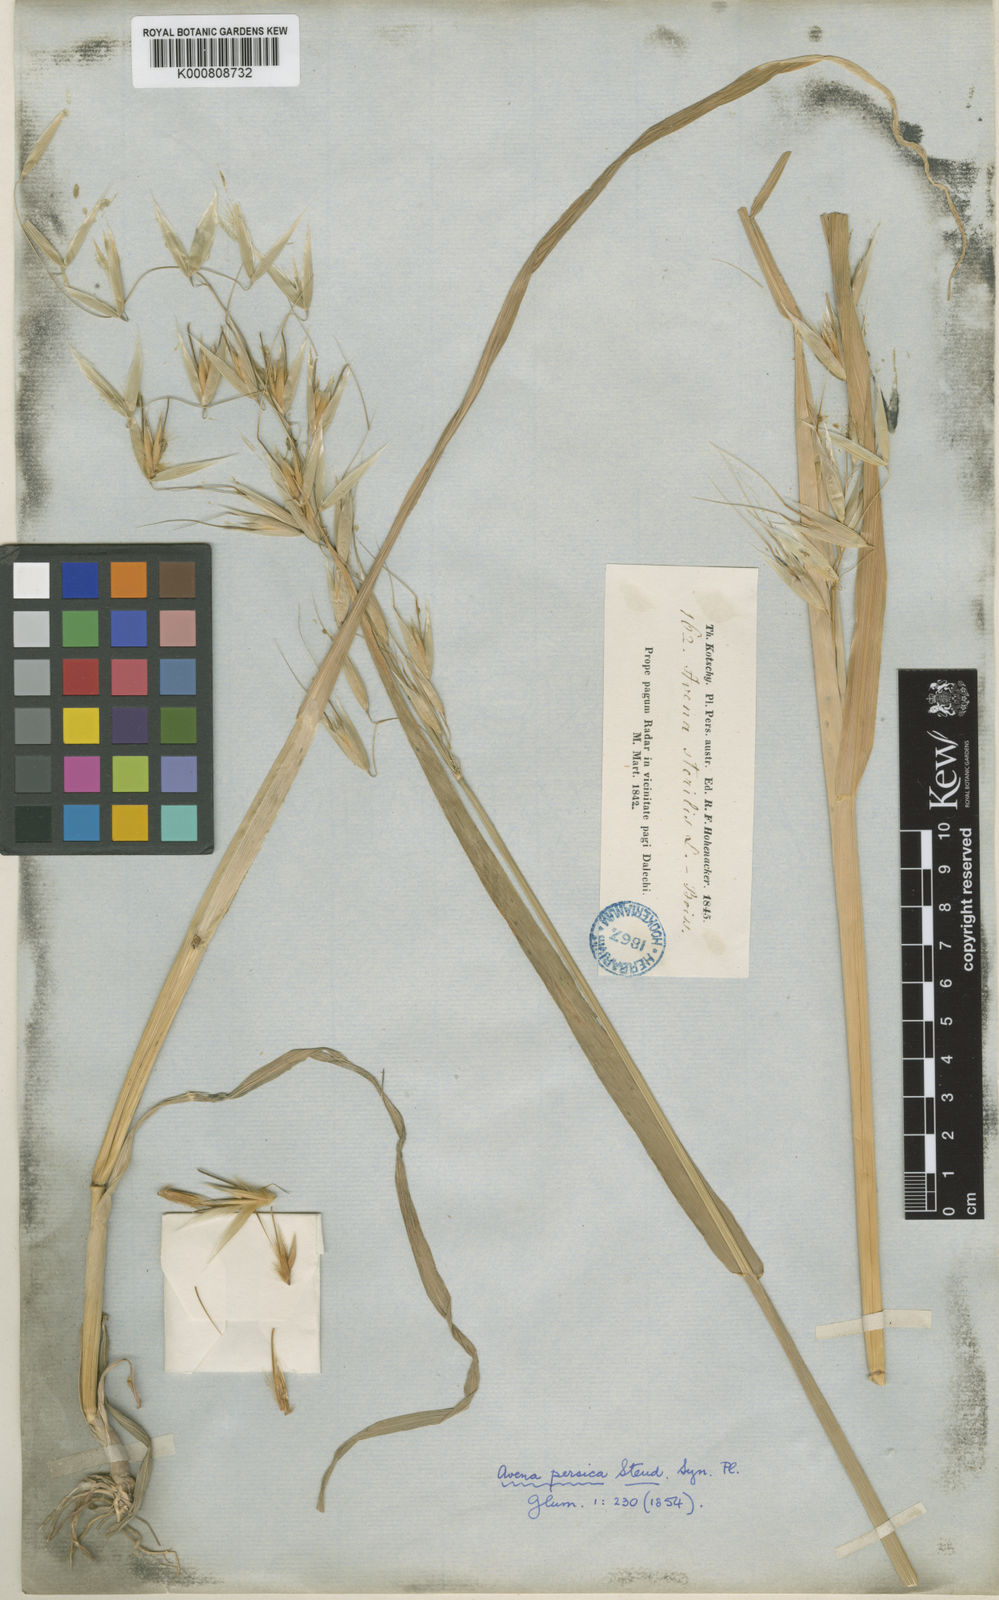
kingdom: Plantae
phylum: Tracheophyta
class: Liliopsida
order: Poales
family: Poaceae
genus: Avena
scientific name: Avena sterilis
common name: Animated oat
